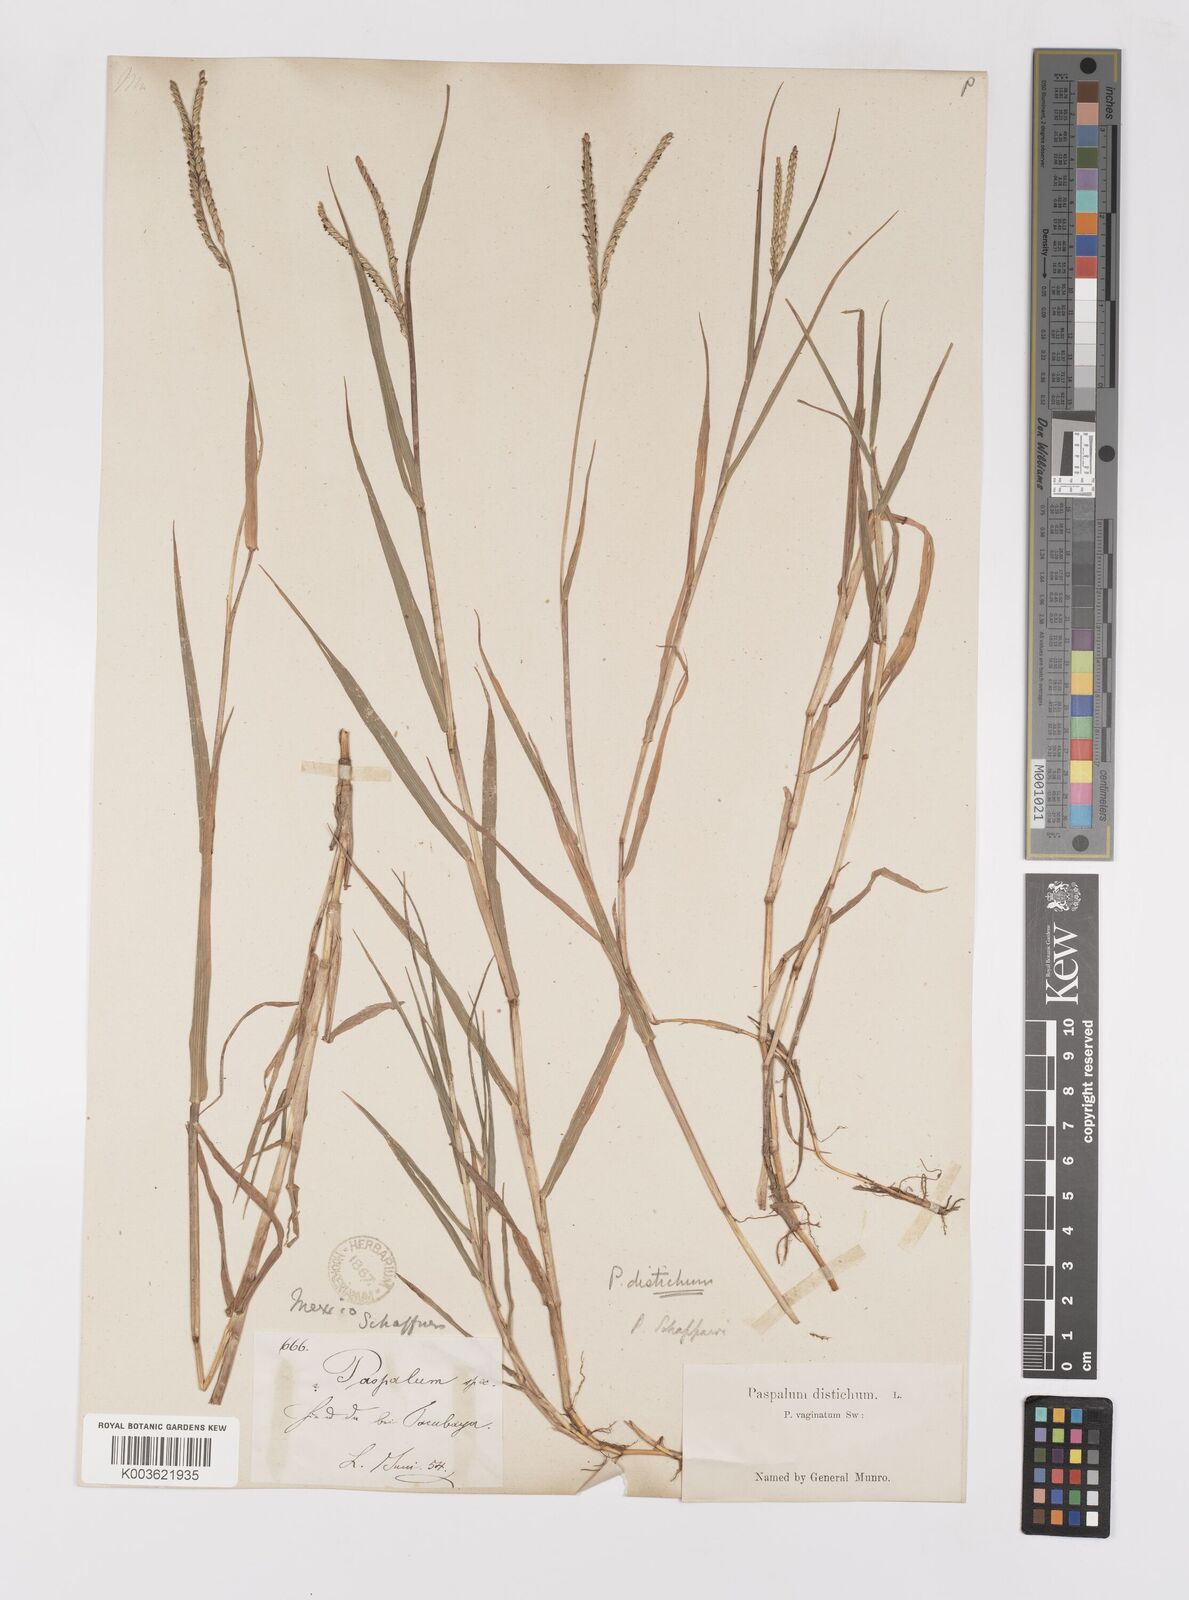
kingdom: Plantae
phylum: Tracheophyta
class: Liliopsida
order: Poales
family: Poaceae
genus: Paspalum
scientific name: Paspalum distichum
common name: Knotgrass
